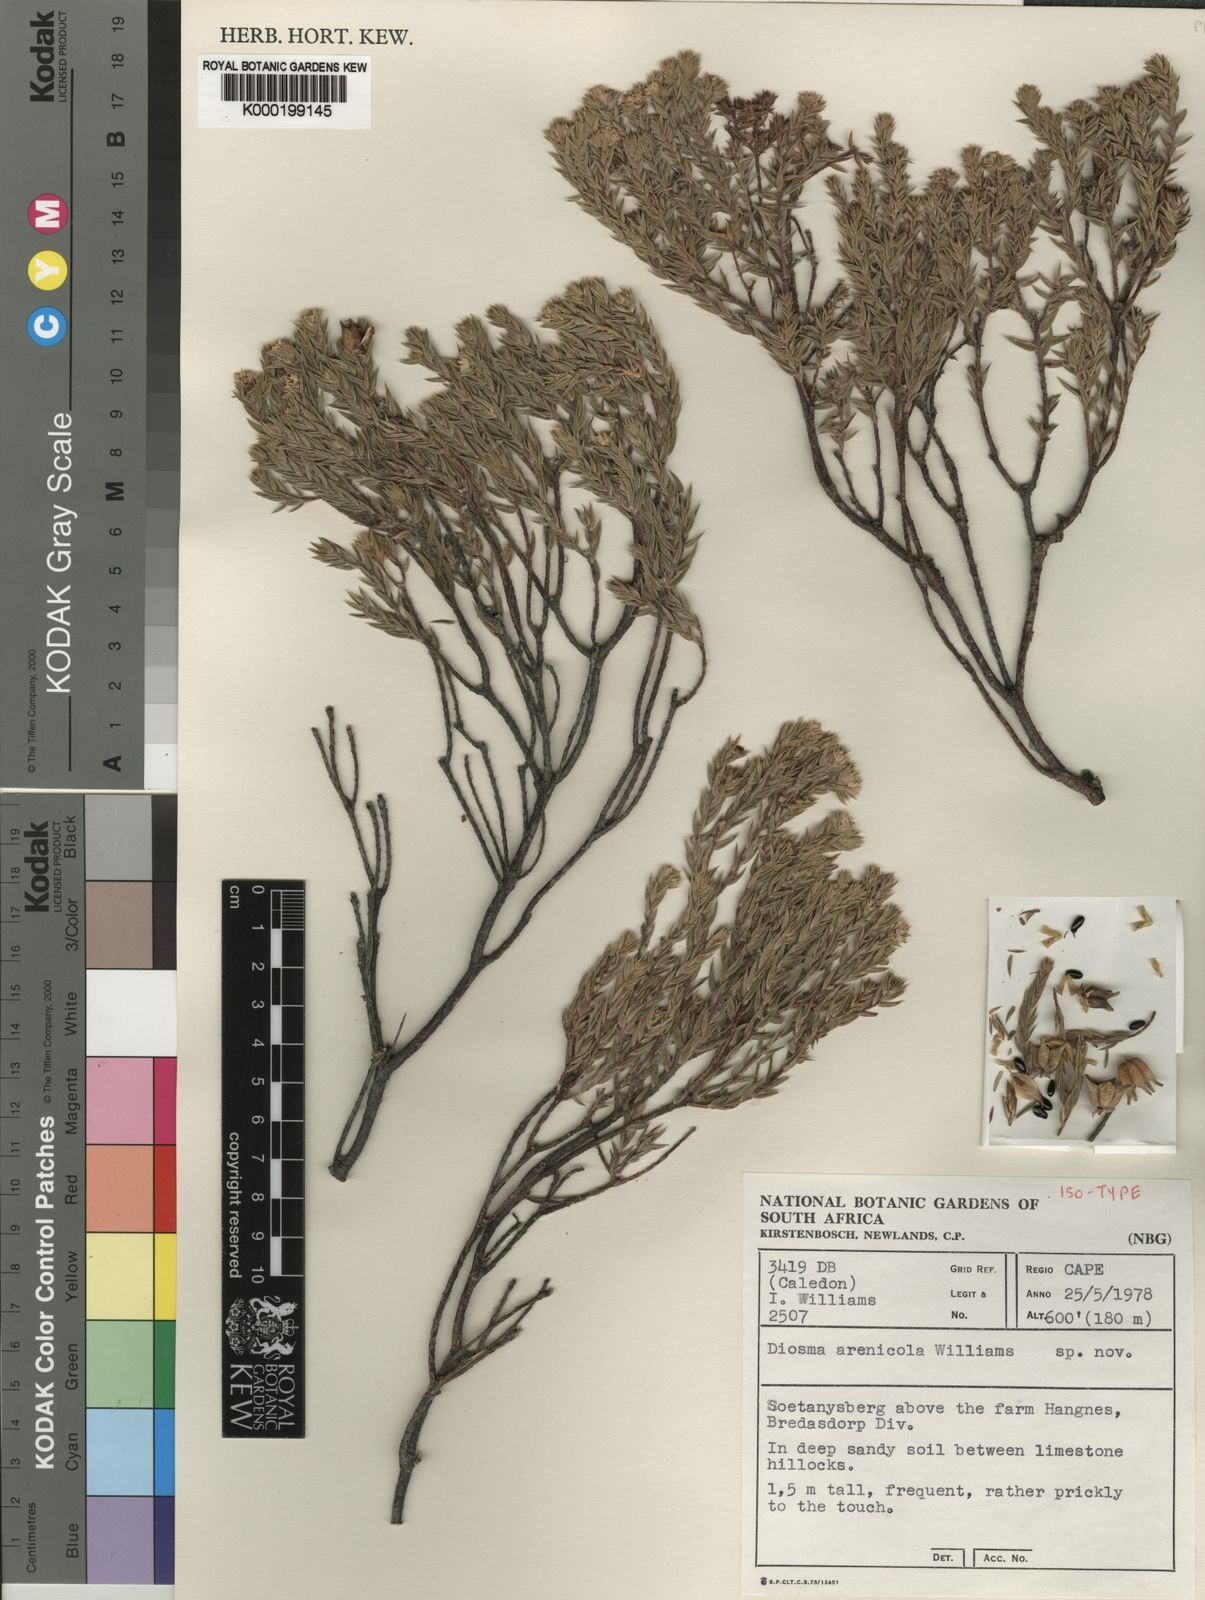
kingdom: Plantae
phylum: Tracheophyta
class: Magnoliopsida
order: Sapindales
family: Rutaceae
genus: Diosma
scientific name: Diosma arenicola
